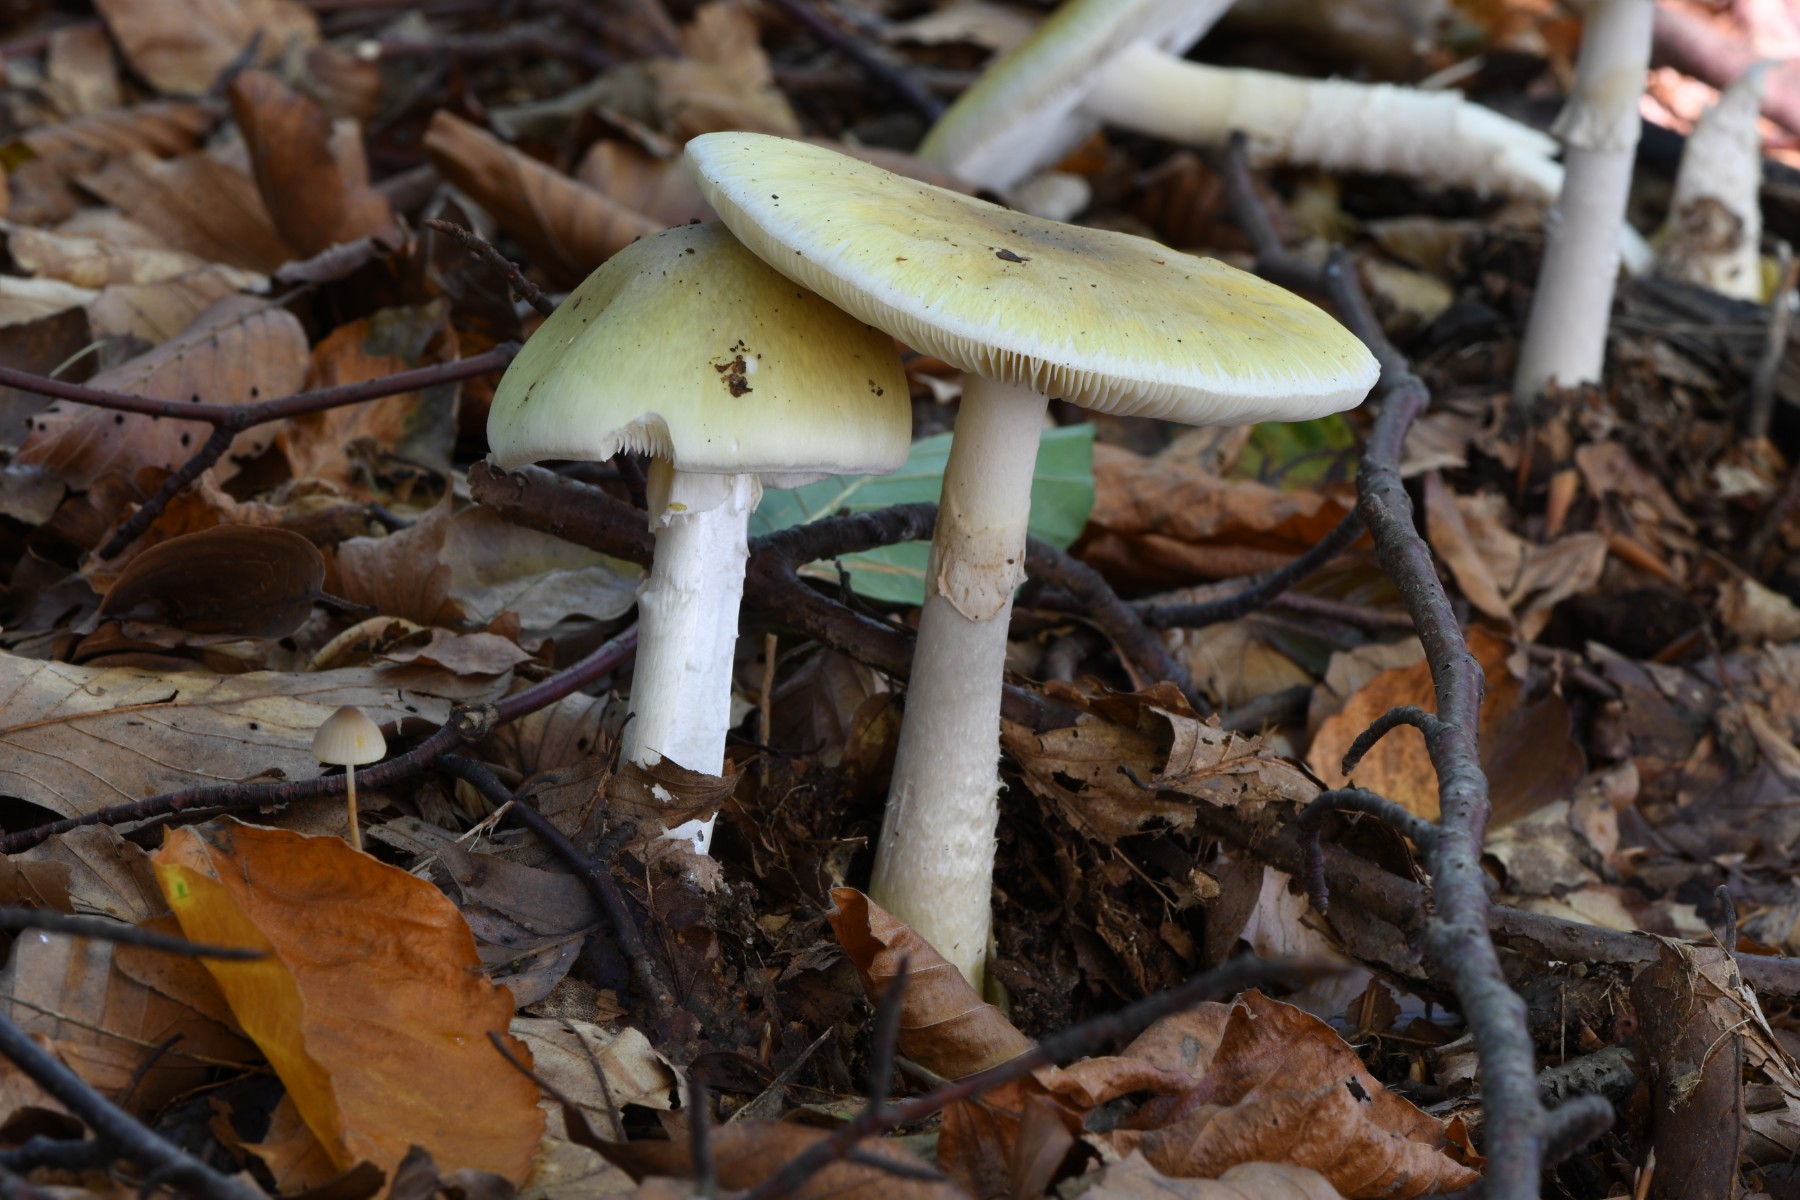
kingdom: Fungi
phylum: Basidiomycota
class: Agaricomycetes
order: Agaricales
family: Amanitaceae
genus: Amanita
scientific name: Amanita phalloides
